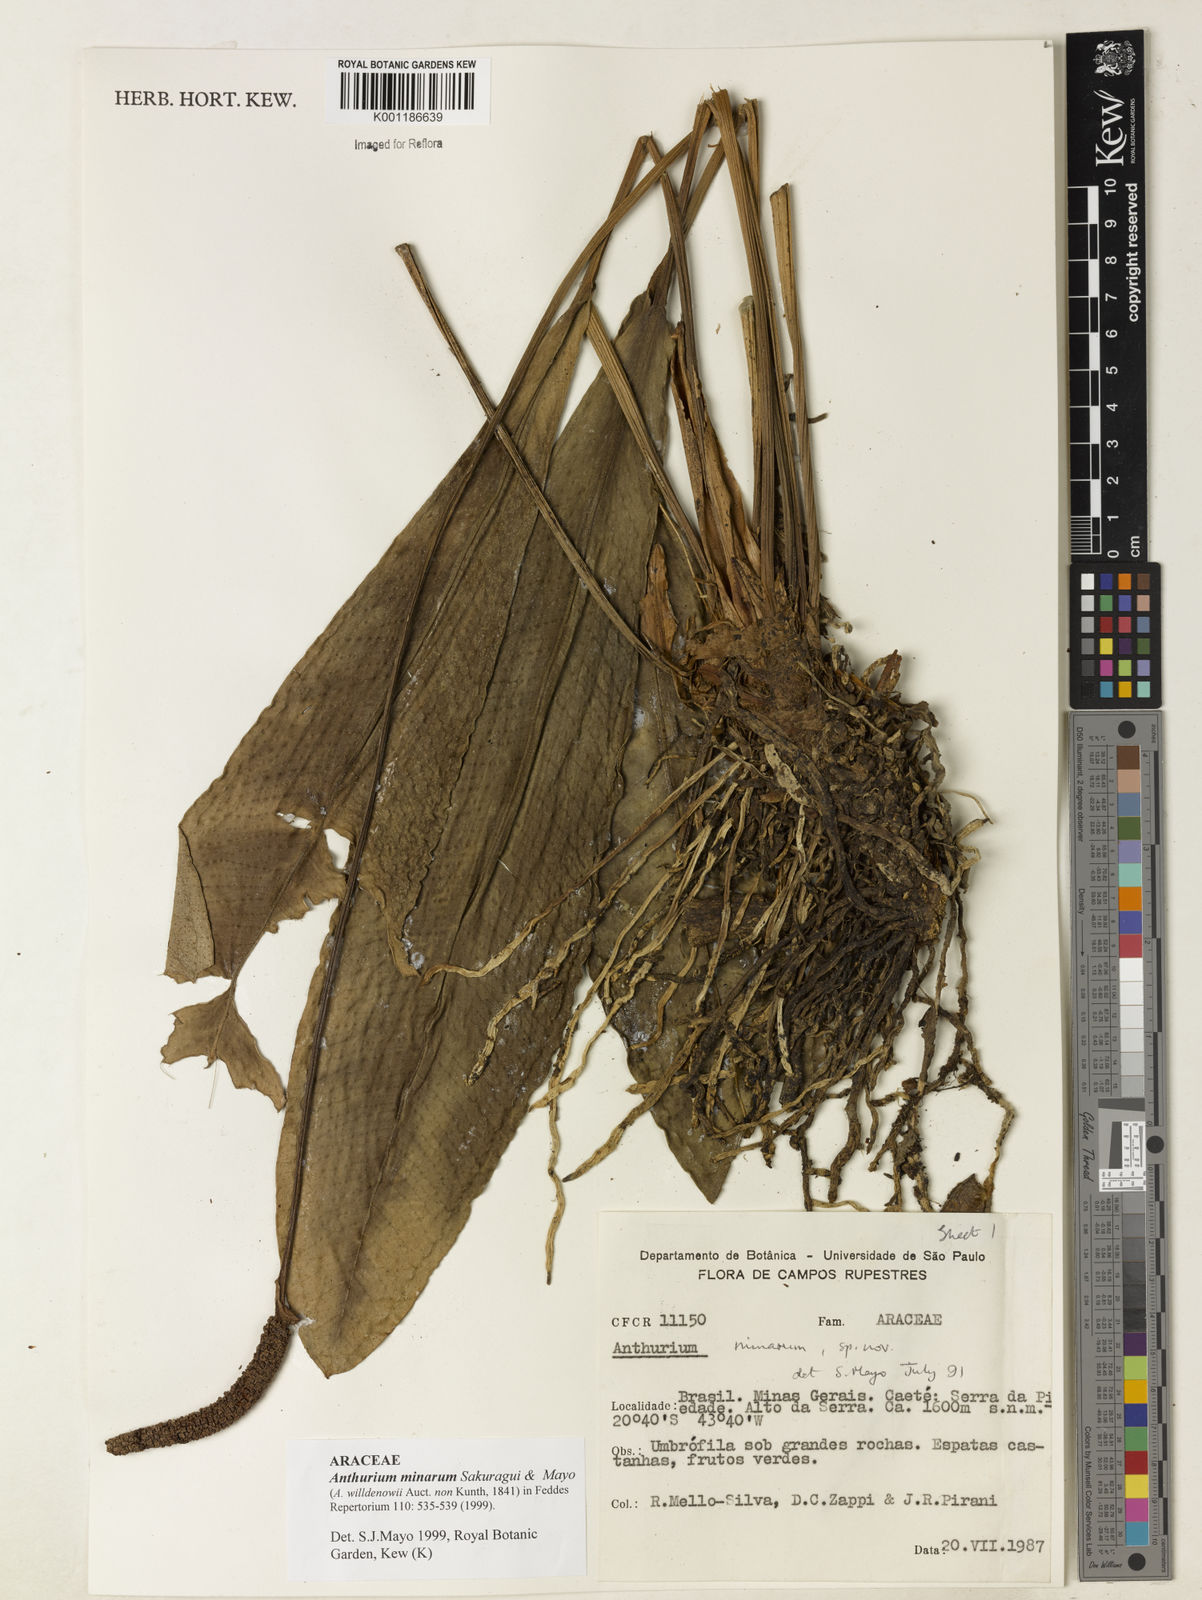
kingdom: Plantae
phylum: Tracheophyta
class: Liliopsida
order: Alismatales
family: Araceae
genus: Anthurium
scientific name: Anthurium minarum
